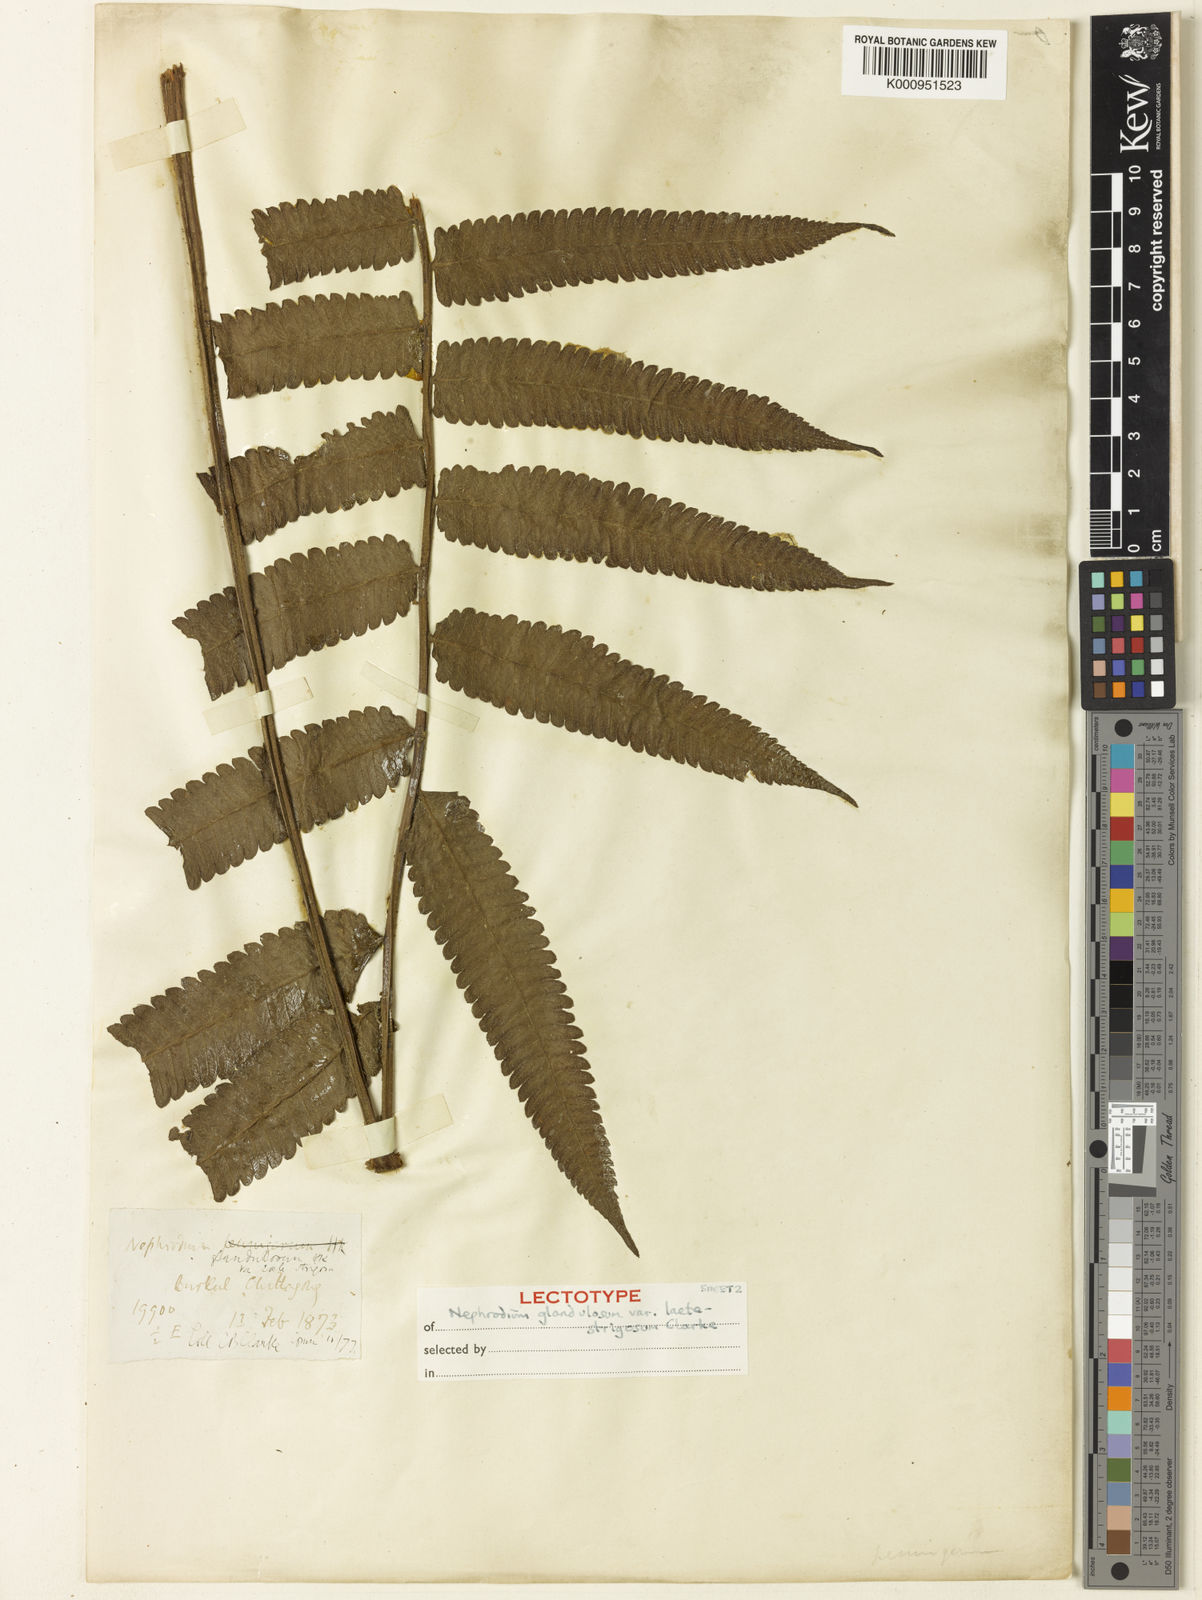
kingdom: Plantae
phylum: Tracheophyta
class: Polypodiopsida
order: Polypodiales
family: Thelypteridaceae
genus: Christella
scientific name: Christella euphlebia
